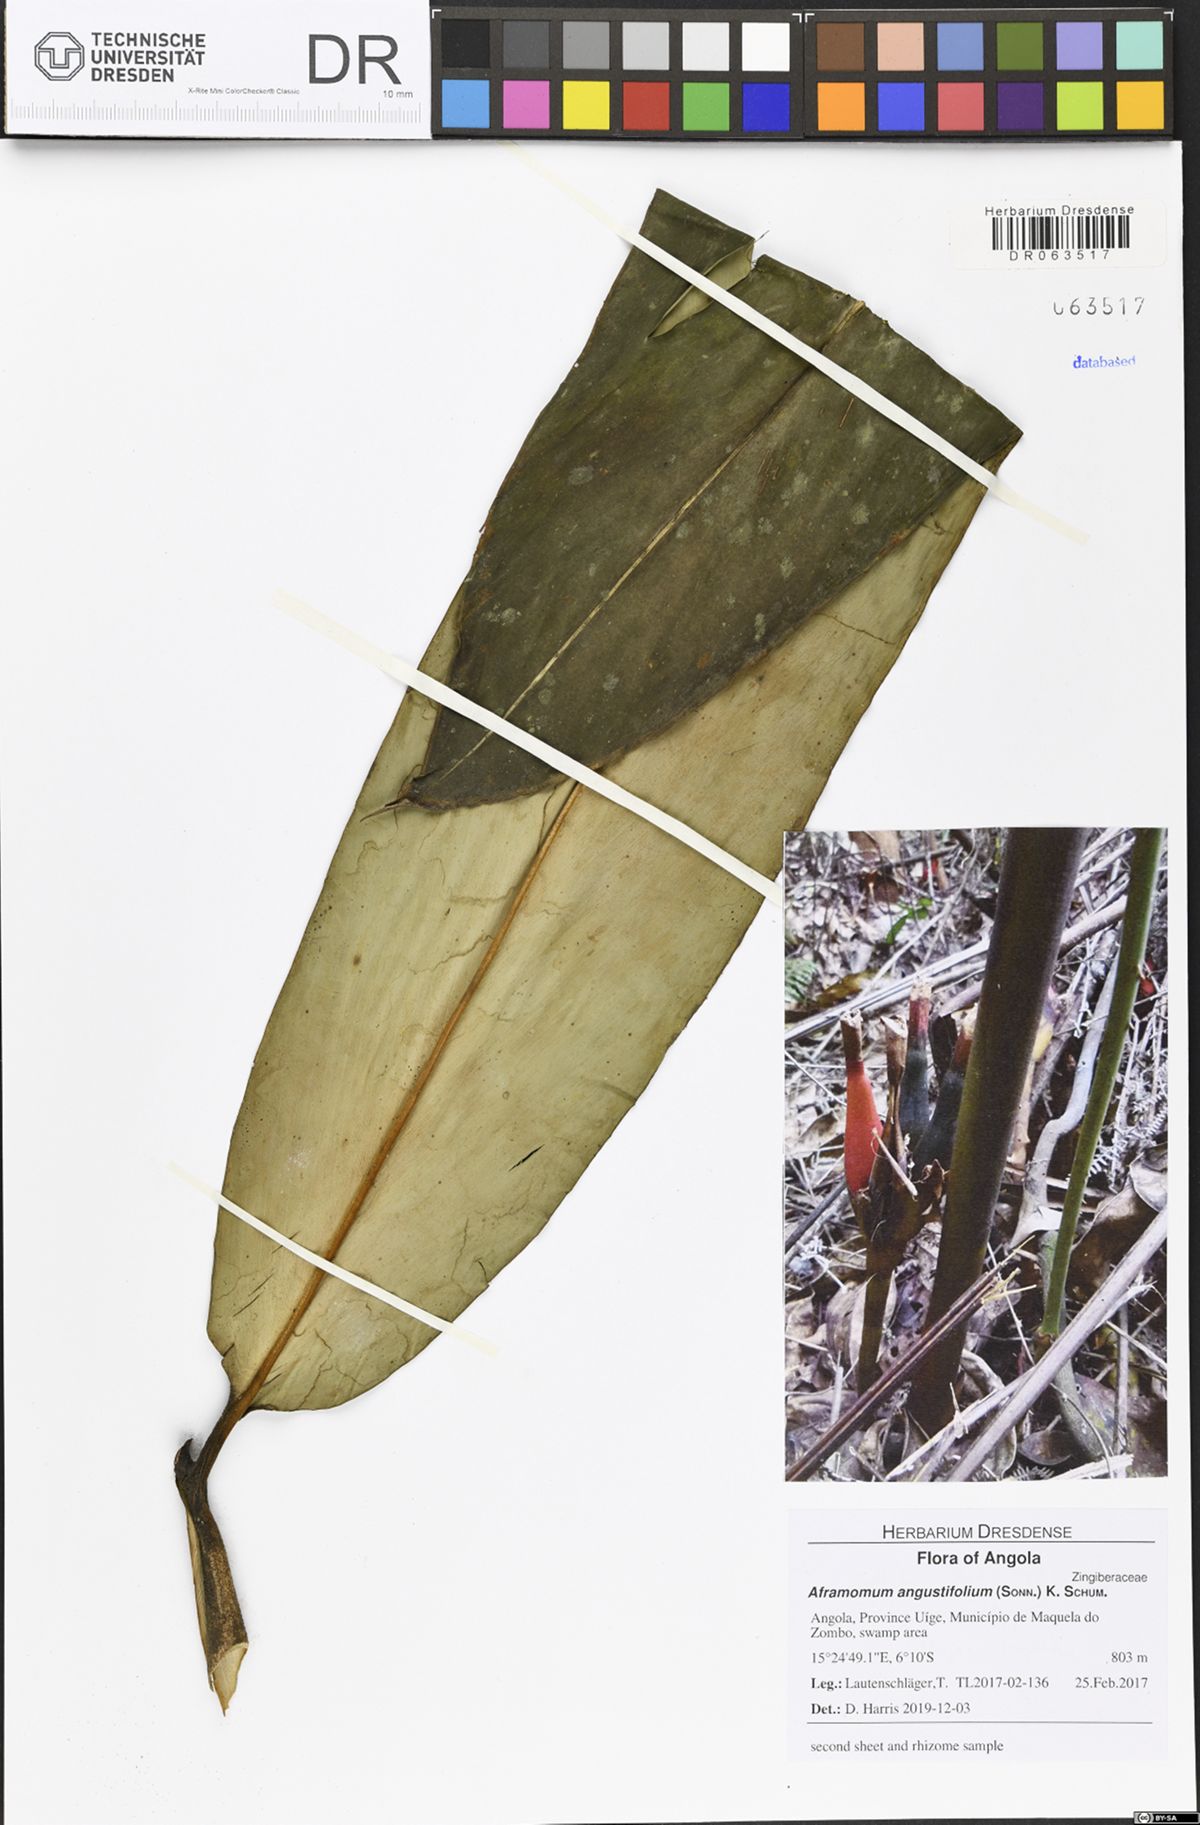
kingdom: Plantae
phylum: Tracheophyta
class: Liliopsida
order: Zingiberales
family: Zingiberaceae
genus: Aframomum
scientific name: Aframomum angustifolium
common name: Guinea grains
